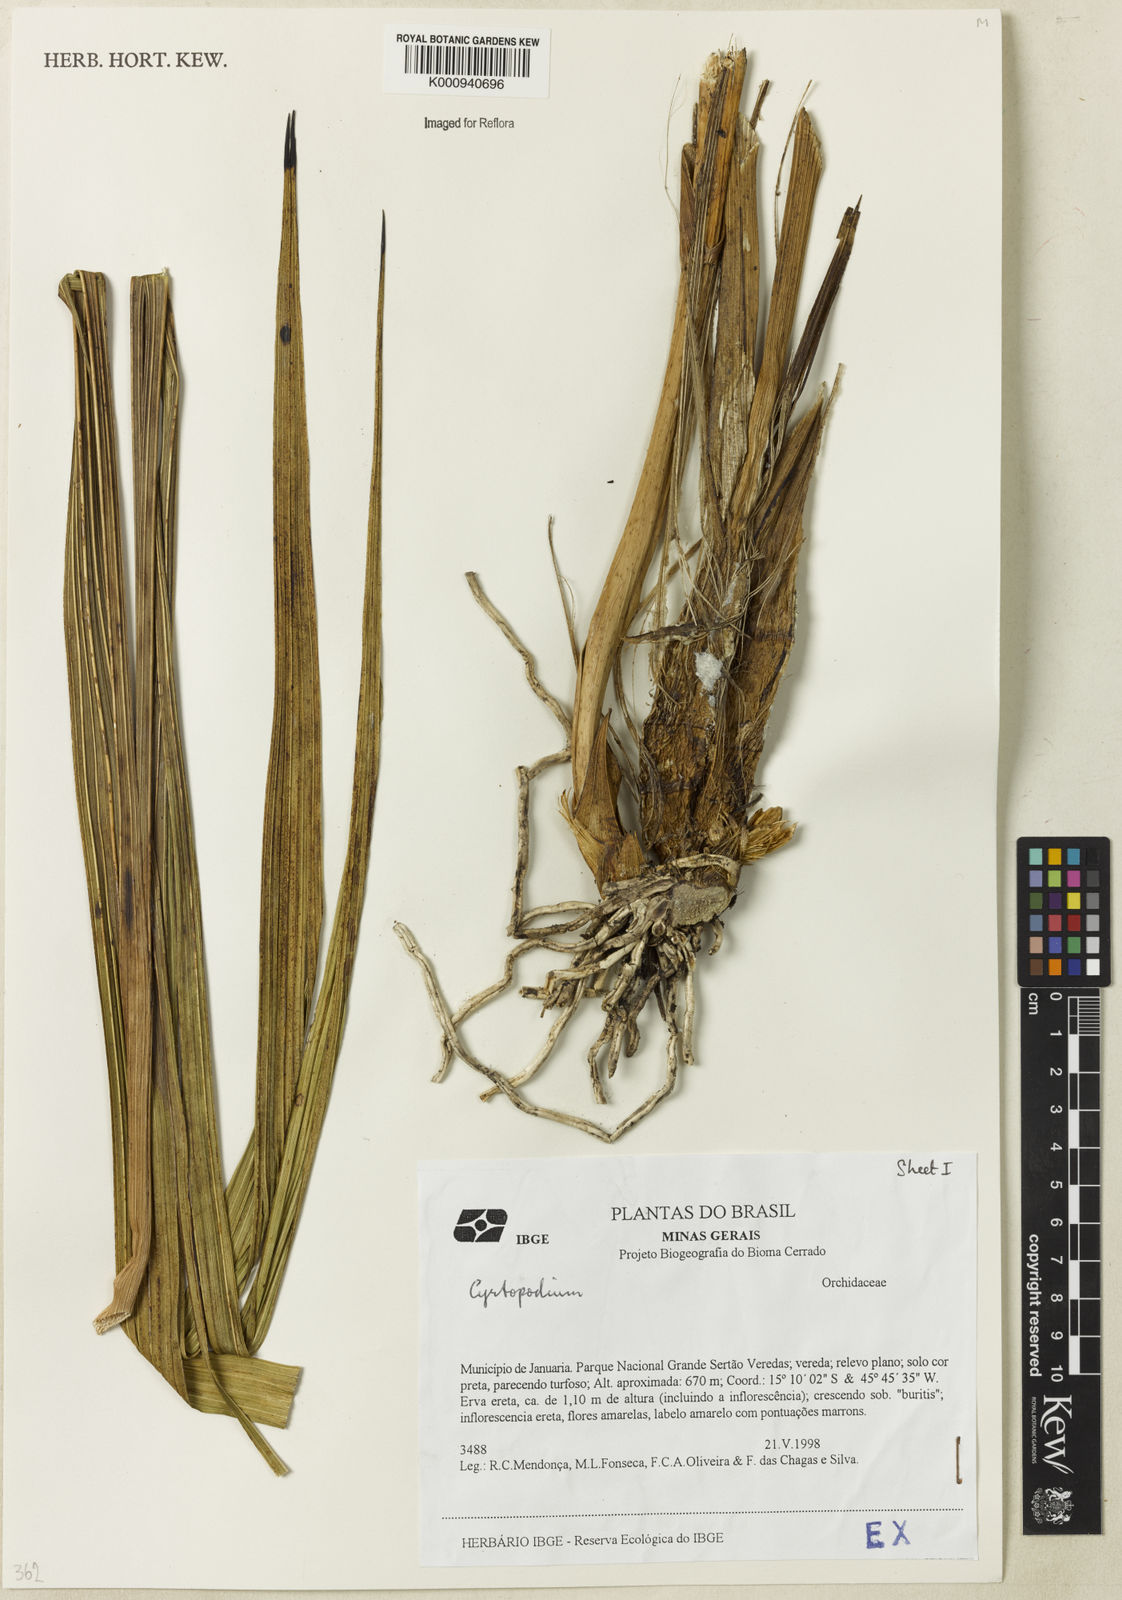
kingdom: Plantae
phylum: Tracheophyta
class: Liliopsida
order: Asparagales
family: Orchidaceae
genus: Cyrtopodium
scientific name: Cyrtopodium
